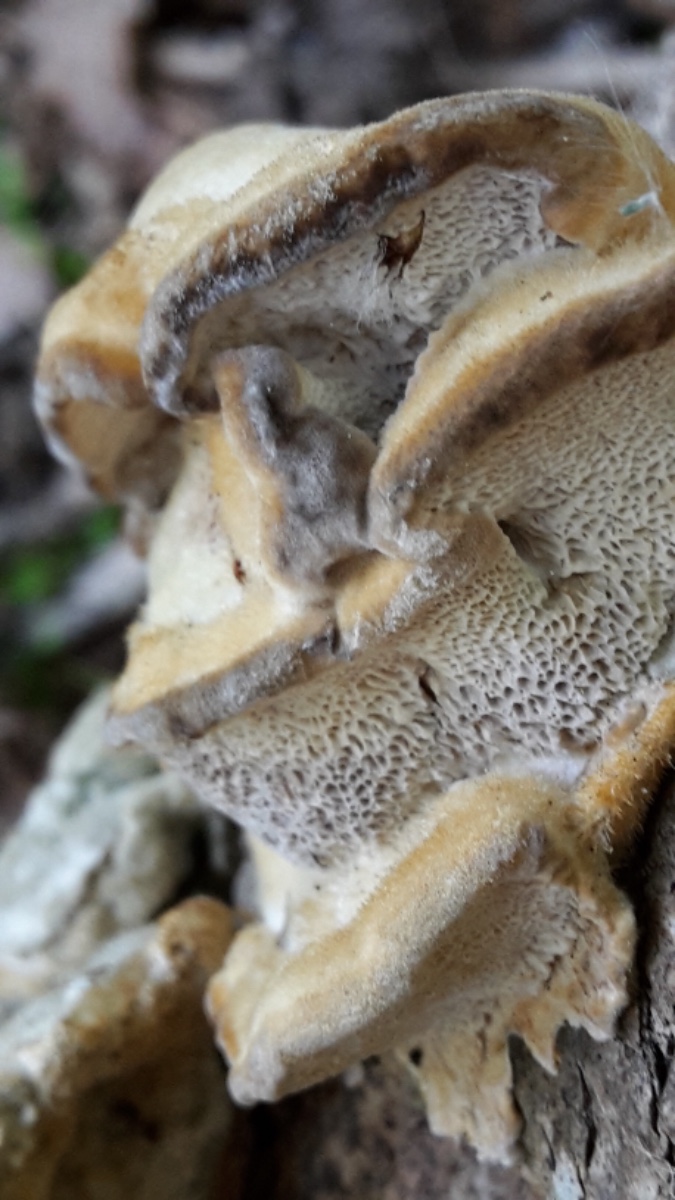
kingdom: Fungi
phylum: Basidiomycota
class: Agaricomycetes
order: Polyporales
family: Phanerochaetaceae
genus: Bjerkandera
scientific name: Bjerkandera fumosa
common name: grågul sodporesvamp
